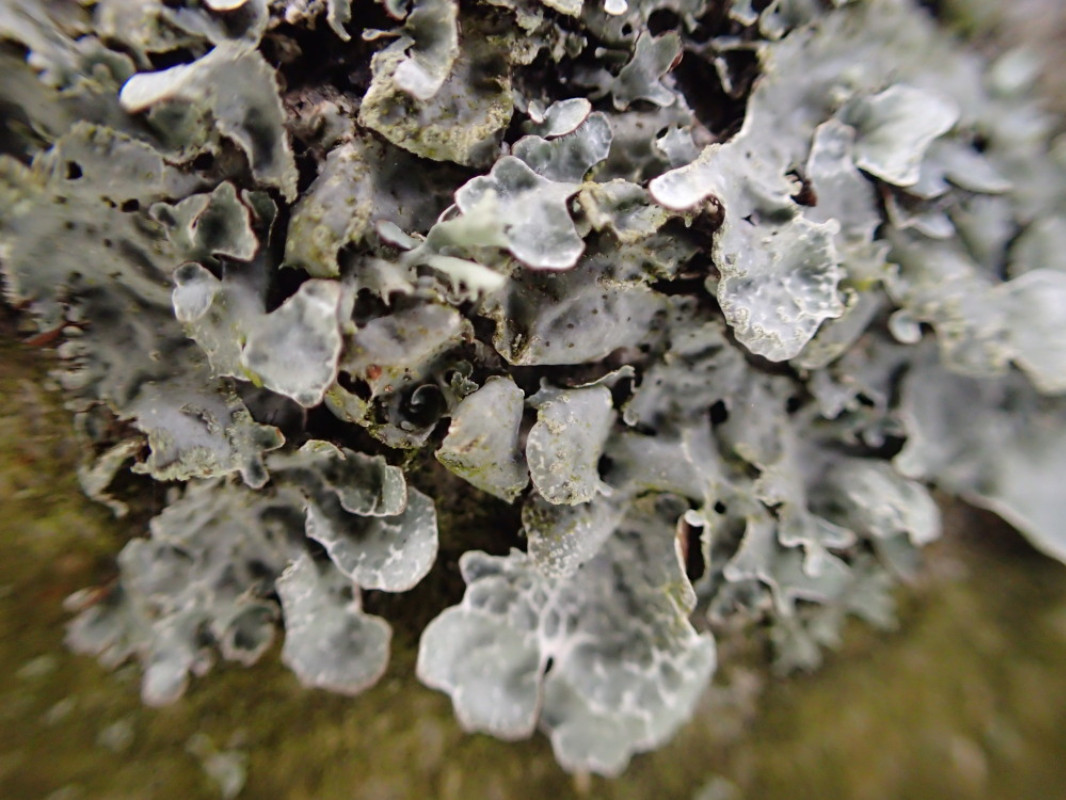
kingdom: Fungi
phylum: Ascomycota
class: Lecanoromycetes
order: Lecanorales
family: Parmeliaceae
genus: Parmelia
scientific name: Parmelia sulcata
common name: rynket skållav
